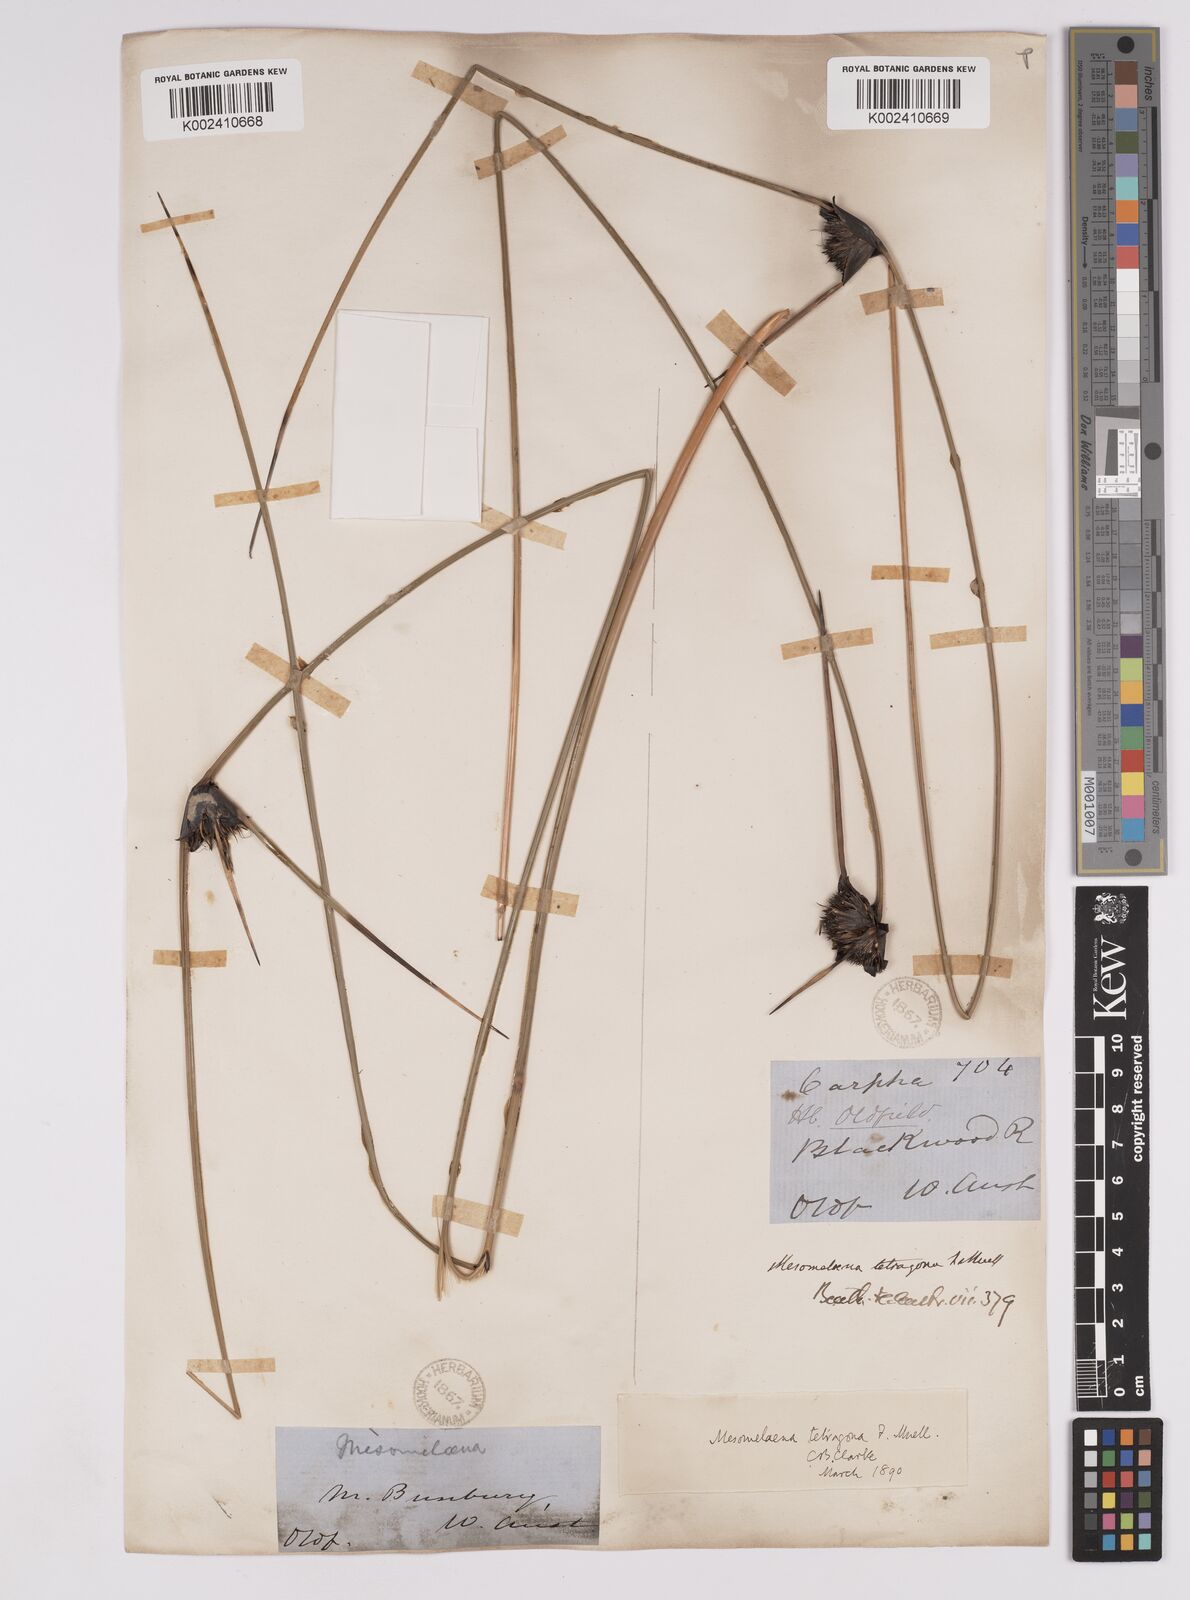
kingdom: Plantae
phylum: Tracheophyta
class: Liliopsida
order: Poales
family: Cyperaceae
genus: Mesomelaena
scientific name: Mesomelaena tetragona
